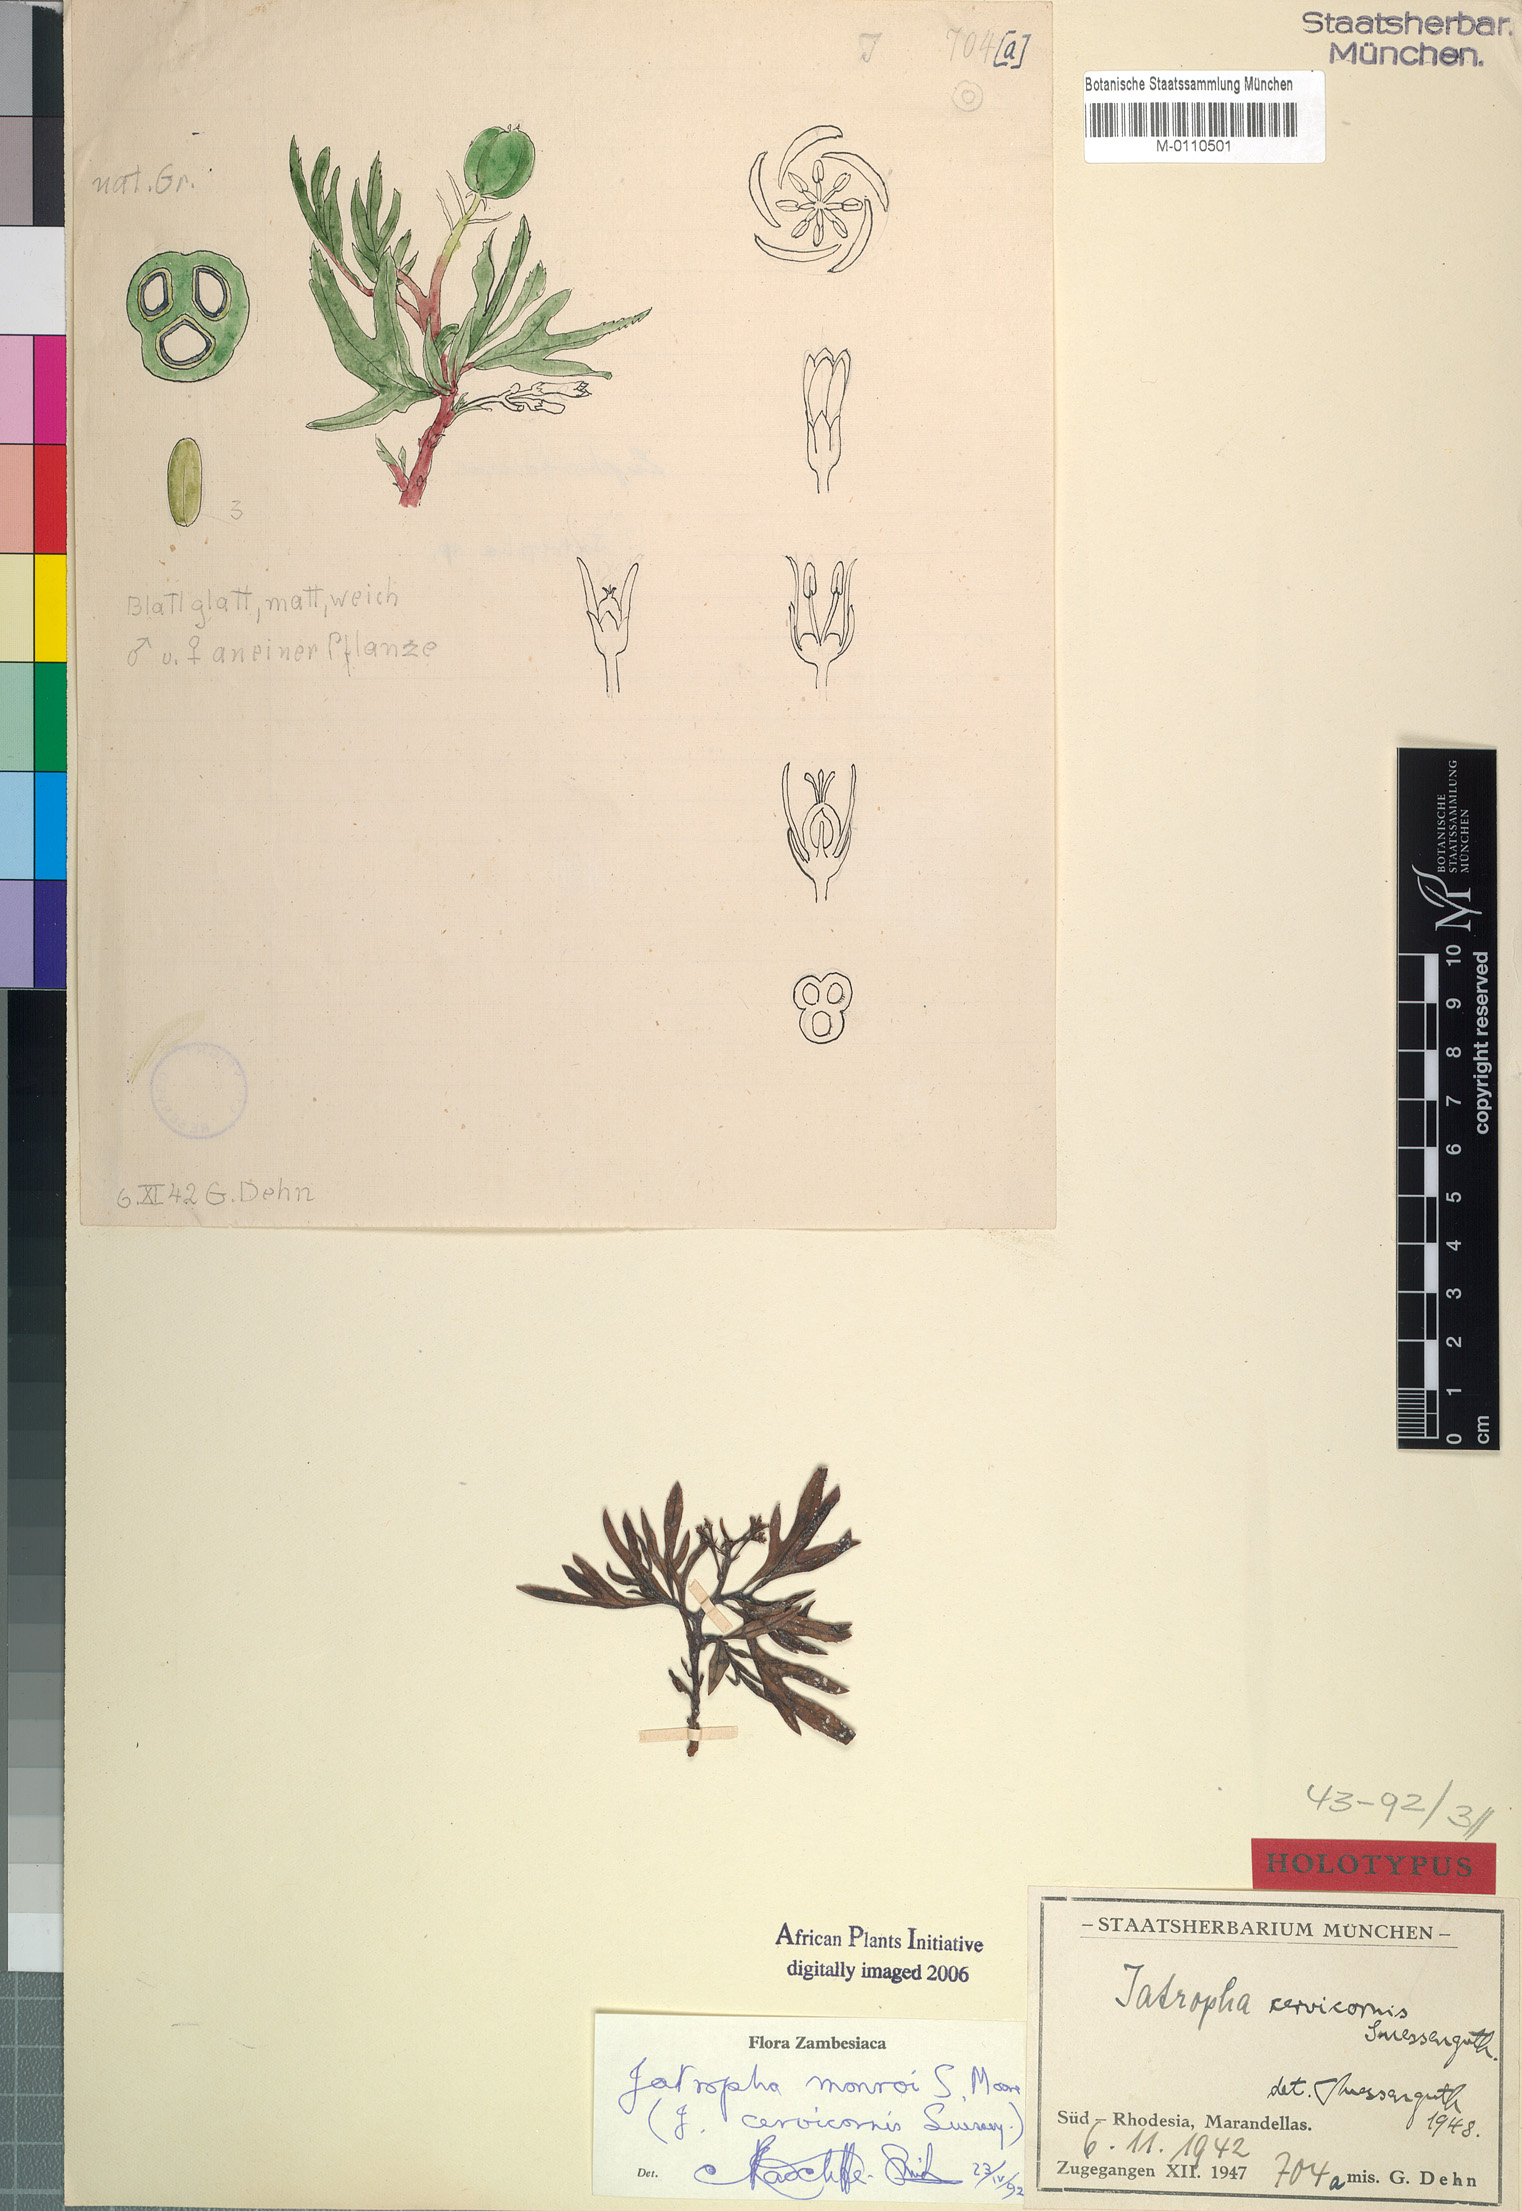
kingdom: Plantae
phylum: Tracheophyta
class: Magnoliopsida
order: Malpighiales
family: Euphorbiaceae
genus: Jatropha
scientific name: Jatropha monroi
